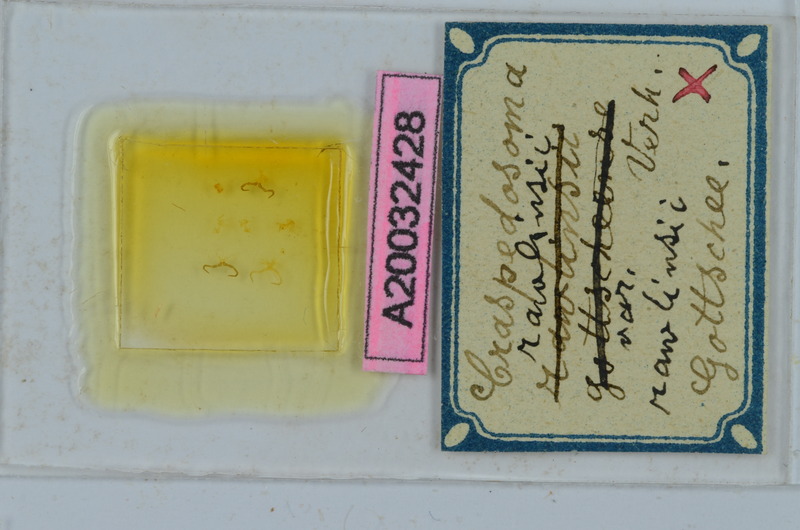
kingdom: Animalia
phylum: Arthropoda
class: Diplopoda
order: Chordeumatida
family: Craspedosomatidae
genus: Craspedosoma
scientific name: Craspedosoma rawlinsii
